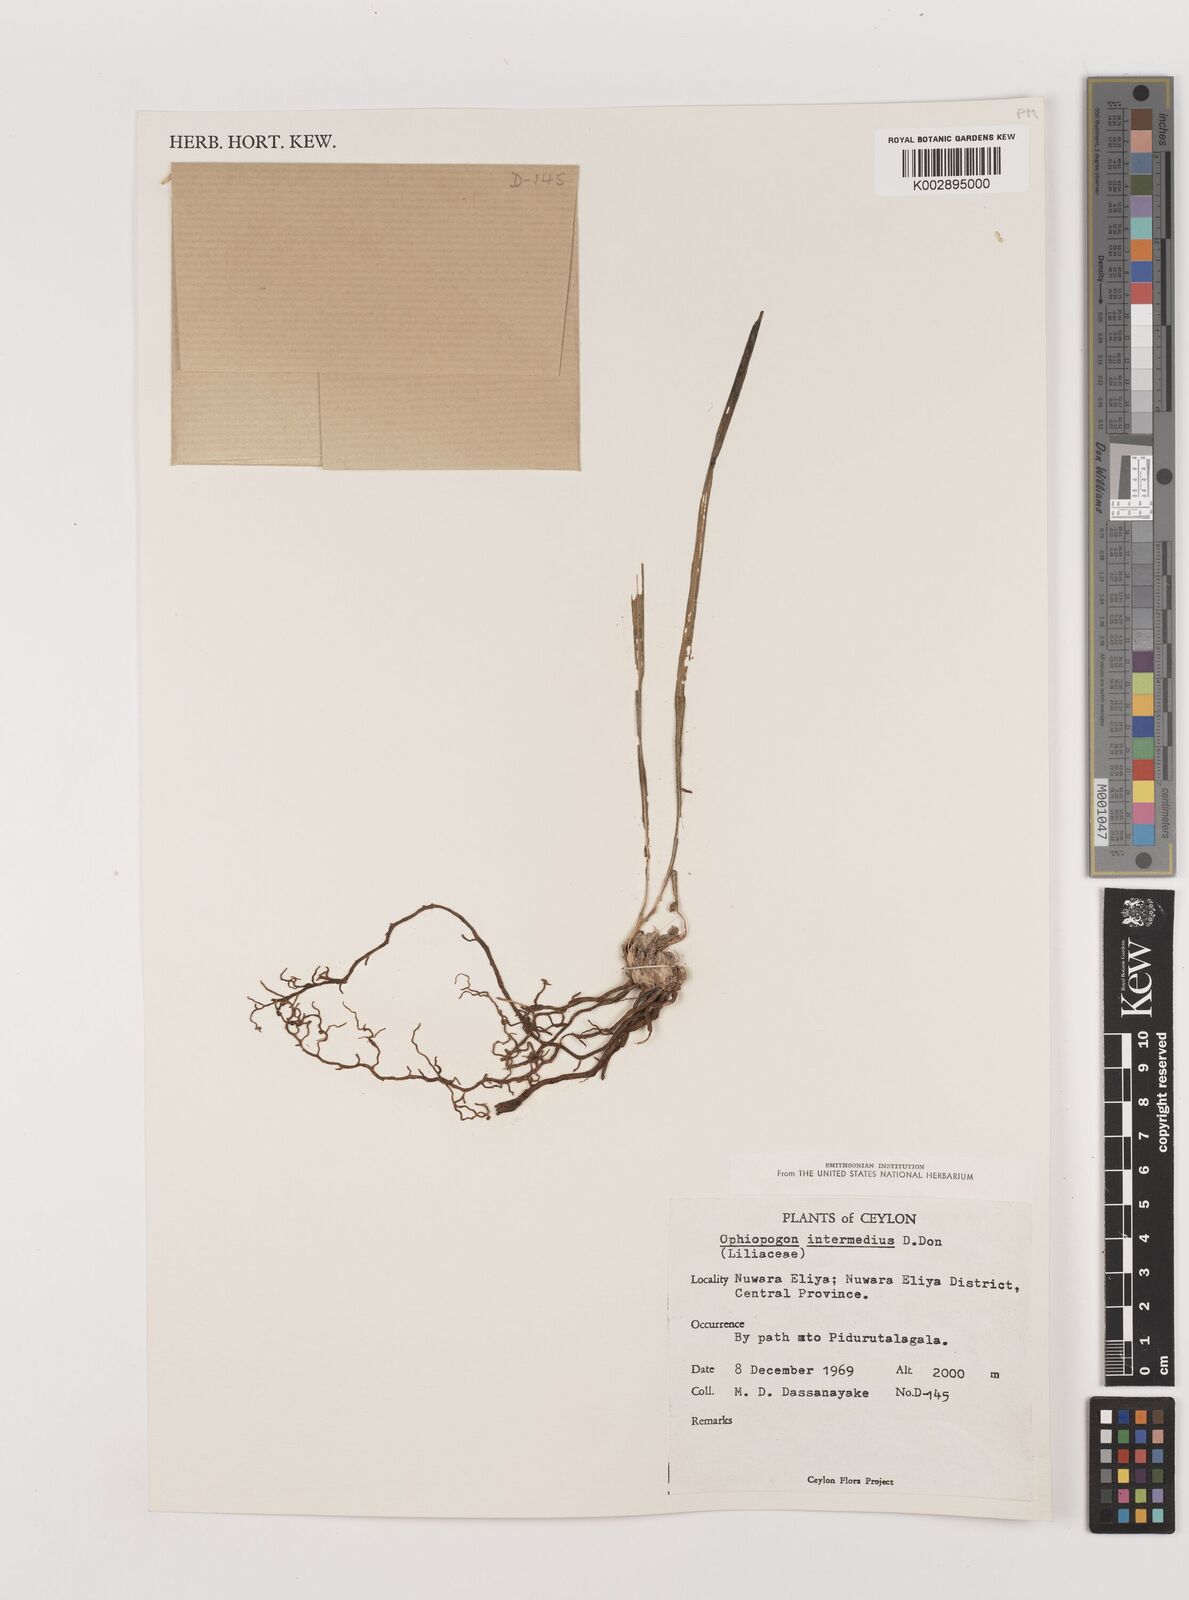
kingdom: Plantae
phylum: Tracheophyta
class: Liliopsida
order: Asparagales
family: Asparagaceae
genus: Ophiopogon
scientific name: Ophiopogon intermedius
